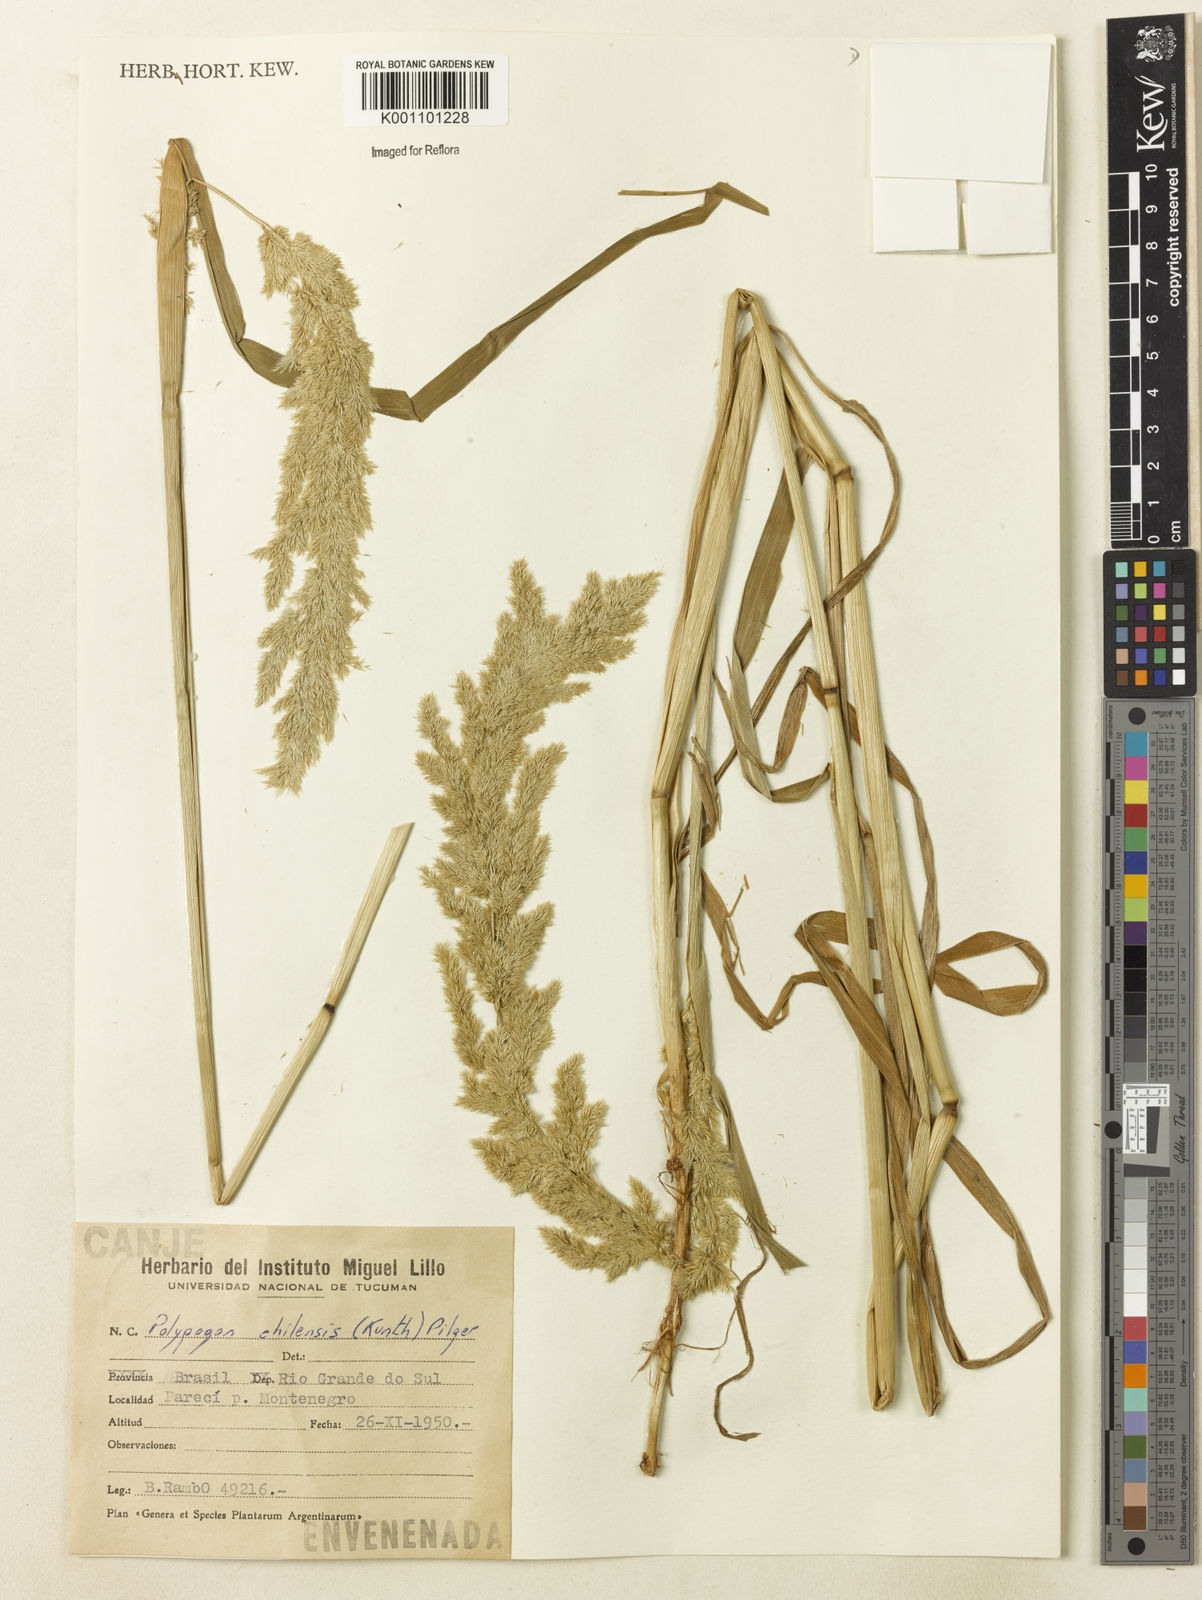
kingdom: Plantae
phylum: Tracheophyta
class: Liliopsida
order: Poales
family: Poaceae
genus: Polypogon
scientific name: Polypogon chilensis
